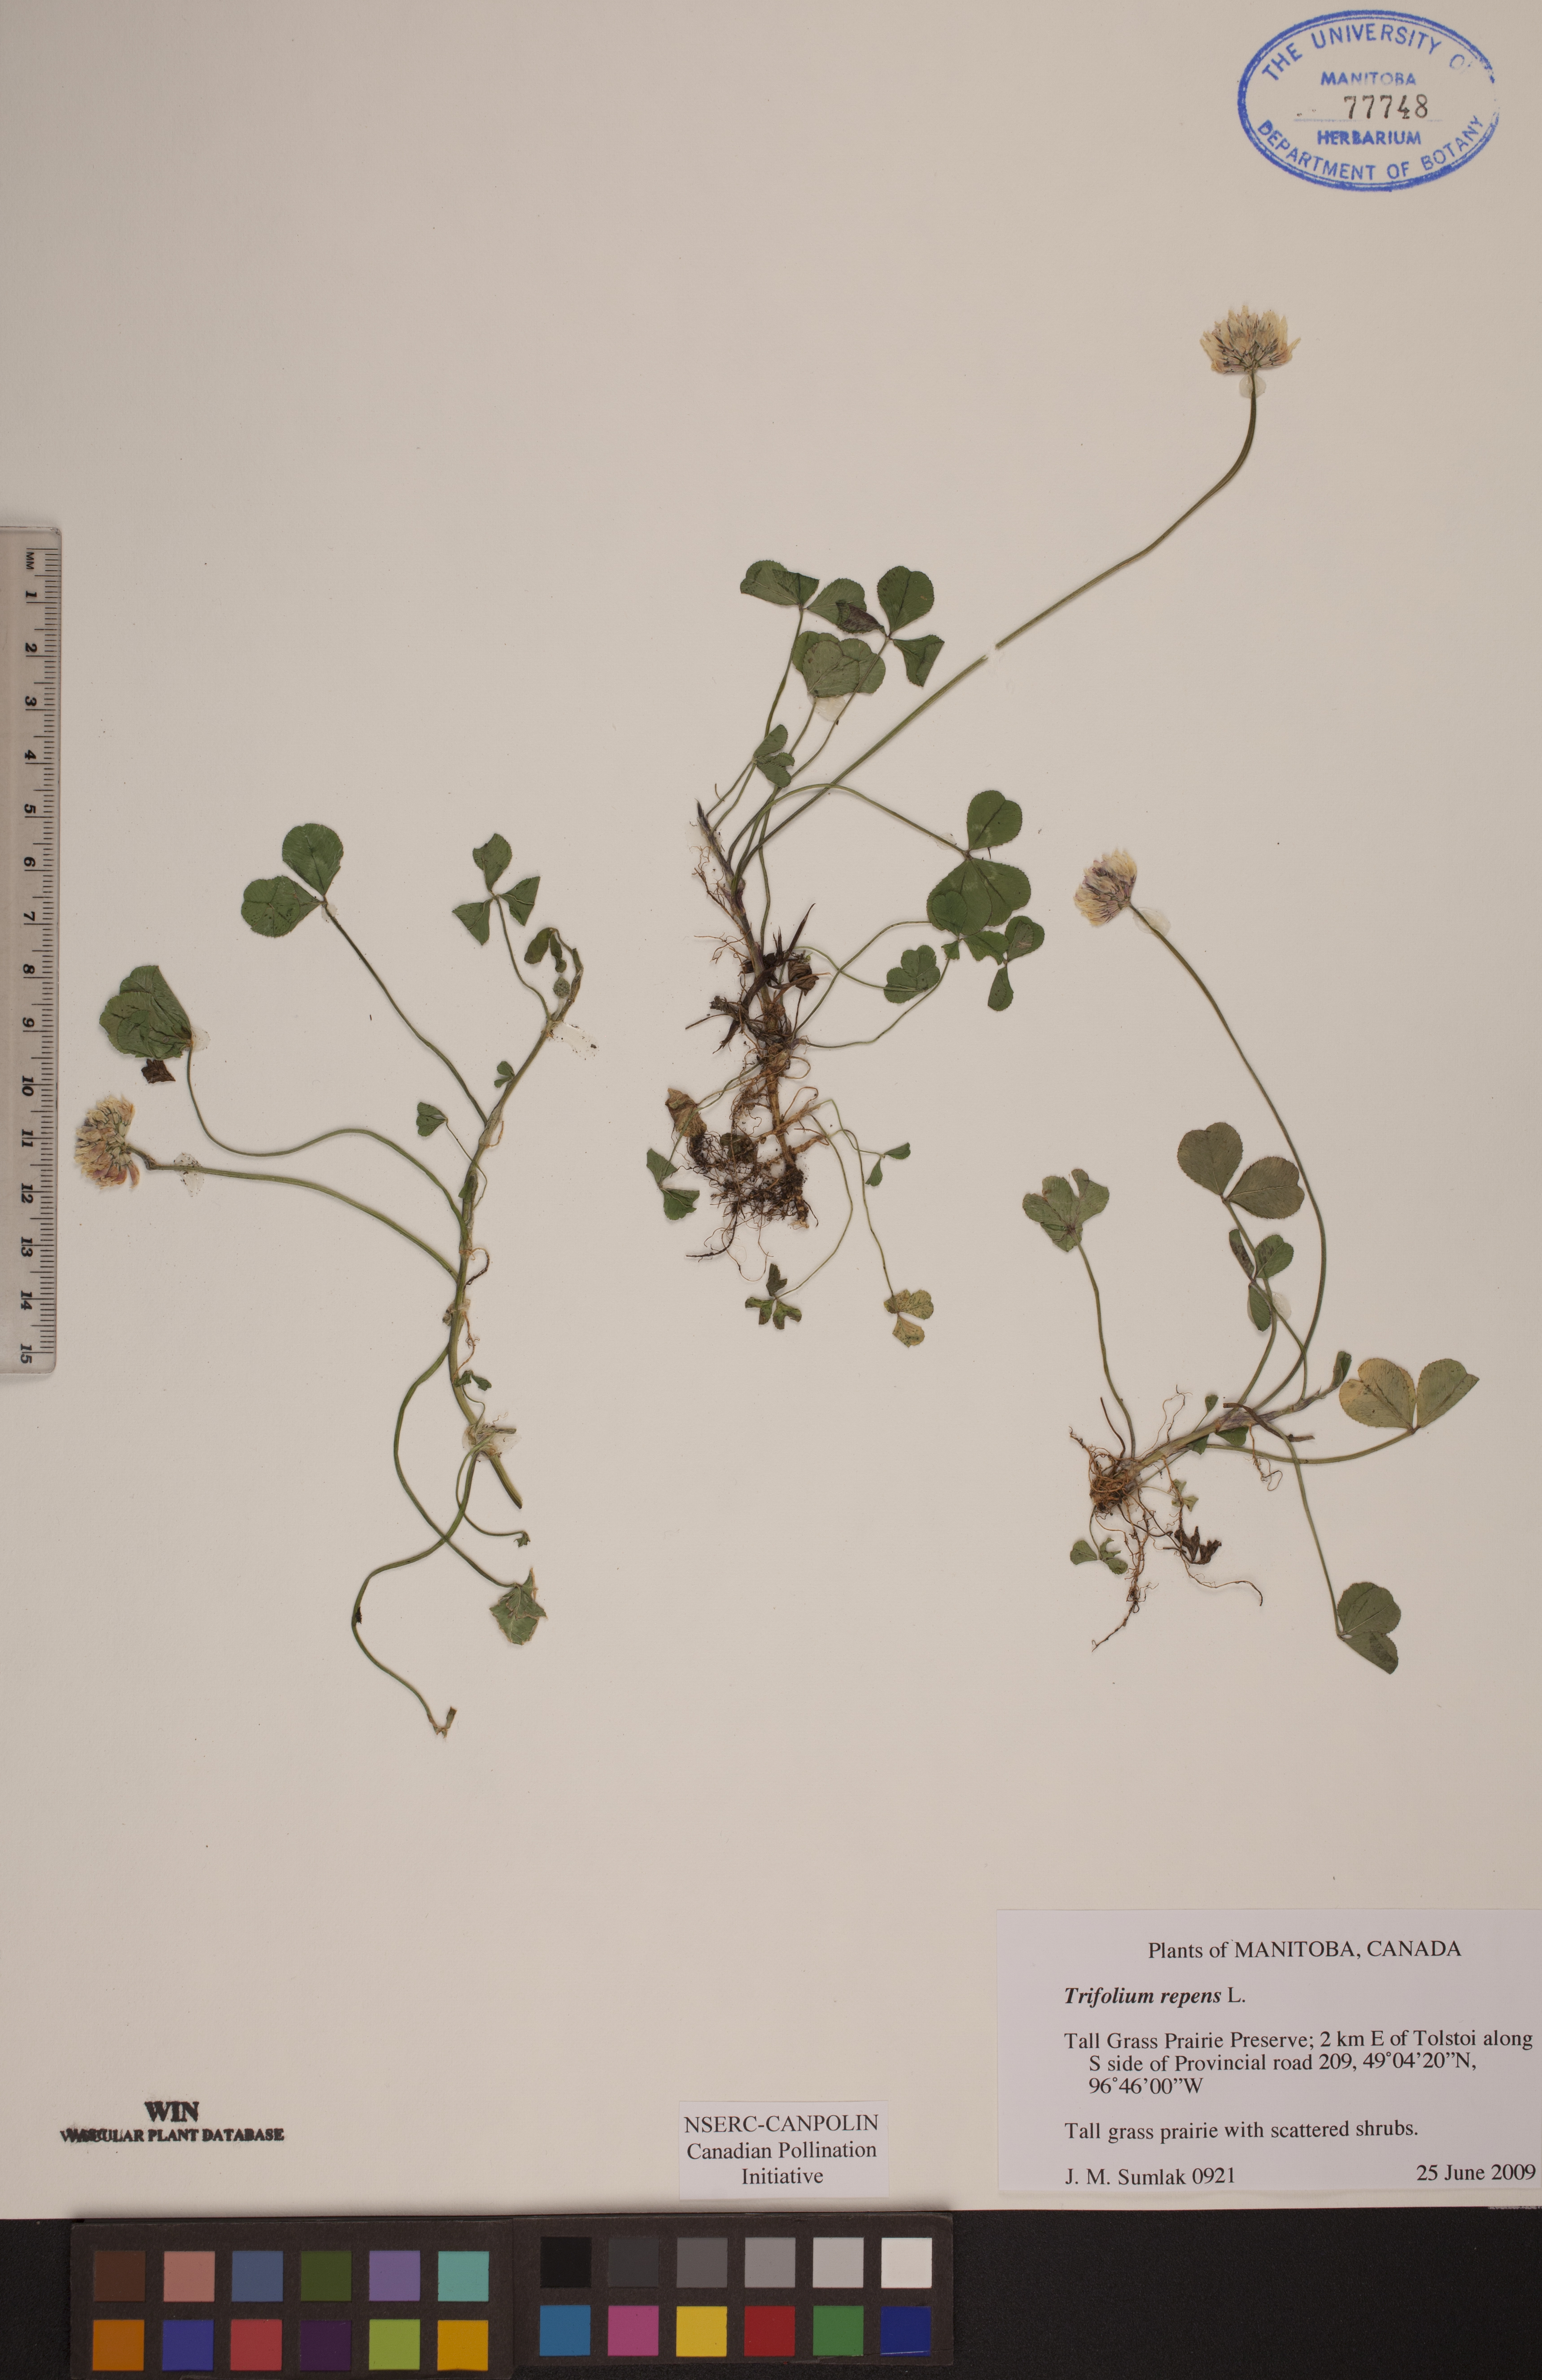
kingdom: Plantae
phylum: Tracheophyta
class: Magnoliopsida
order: Fabales
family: Fabaceae
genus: Trifolium
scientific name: Trifolium repens
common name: White clover
